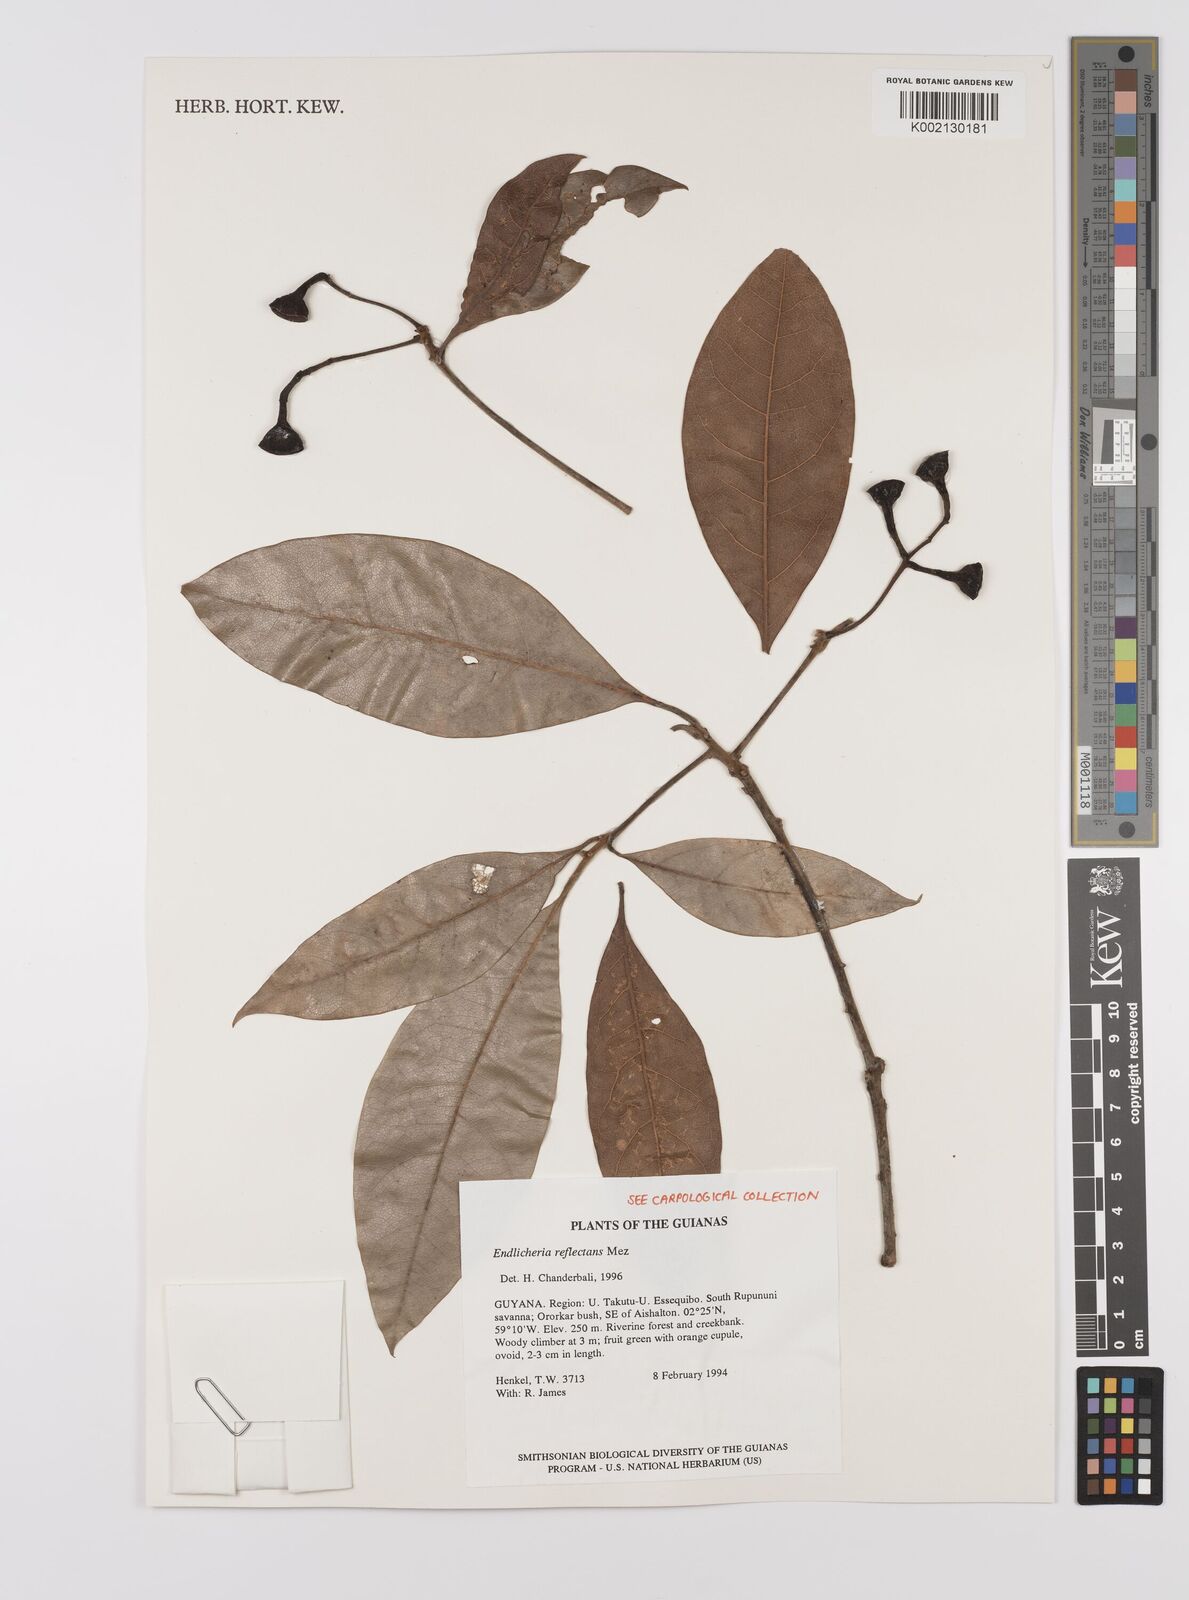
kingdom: Plantae
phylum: Tracheophyta
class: Magnoliopsida
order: Laurales
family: Lauraceae
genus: Endlicheria
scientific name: Endlicheria reflectens
